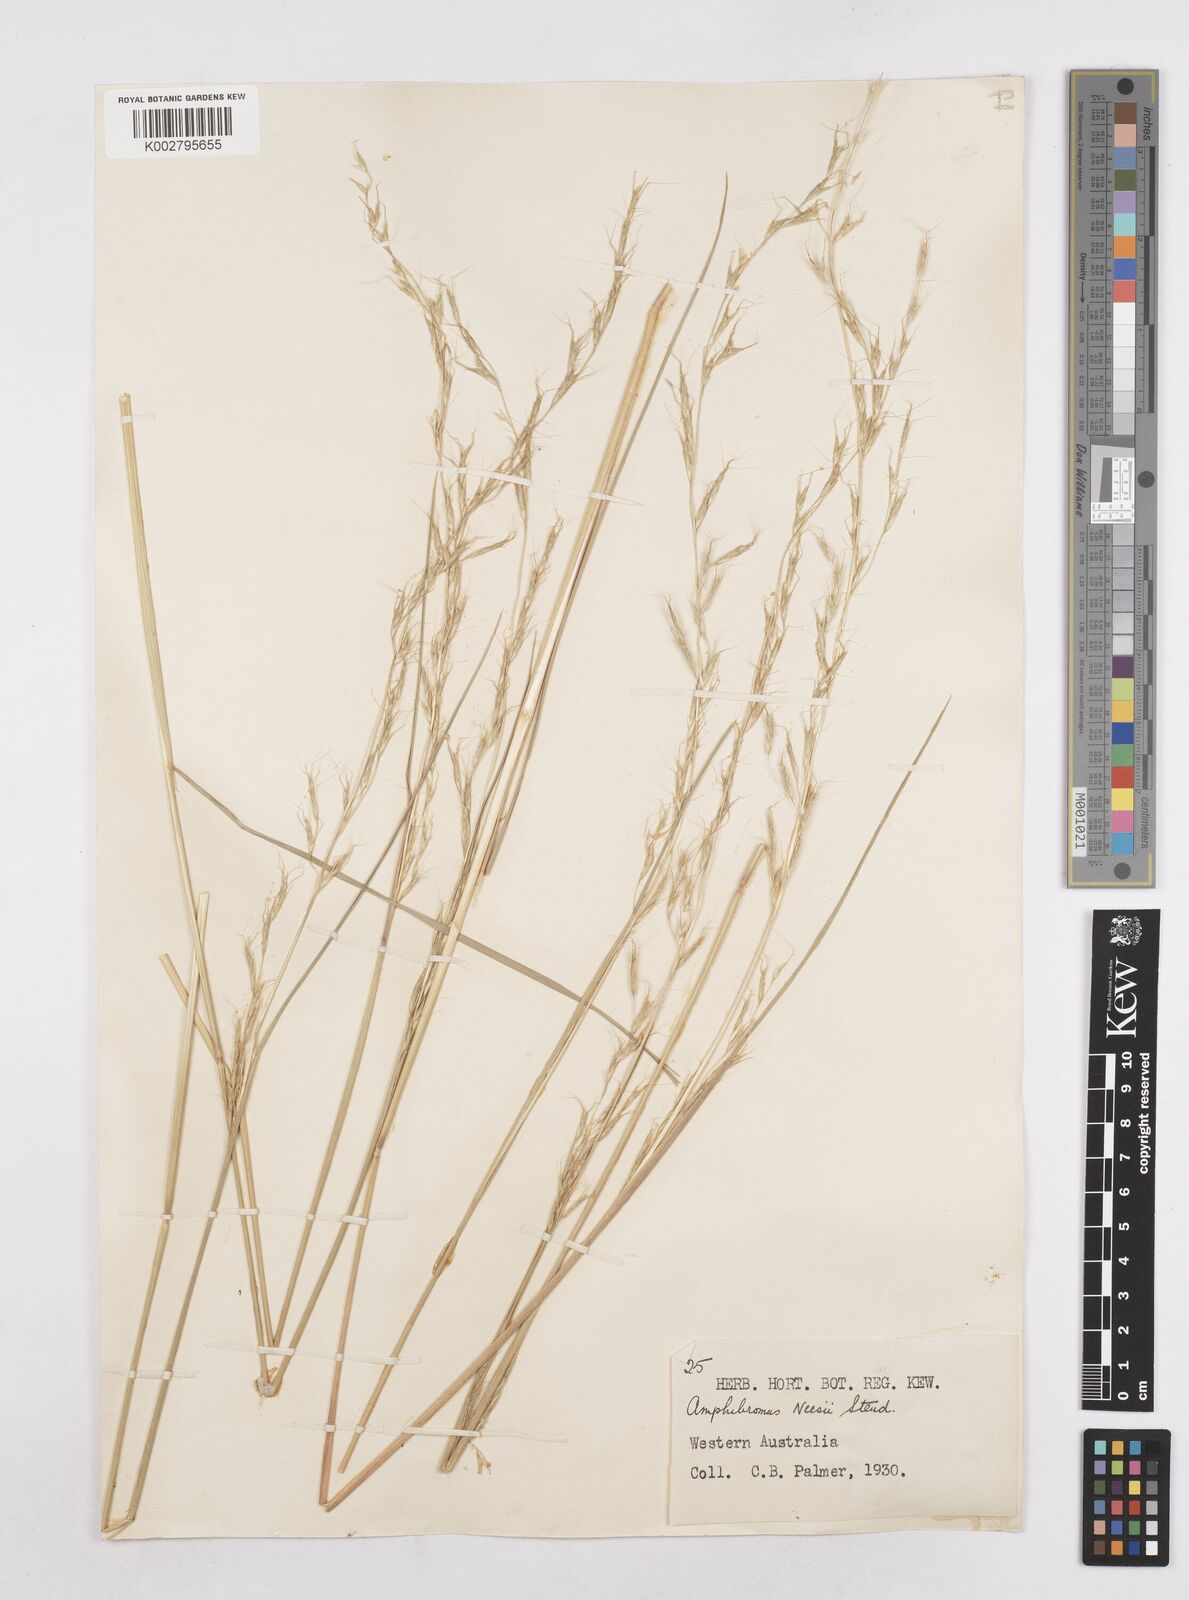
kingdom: Plantae
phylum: Tracheophyta
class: Liliopsida
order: Poales
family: Poaceae
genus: Amphibromus
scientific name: Amphibromus neesii
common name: Australian wallaby grass
